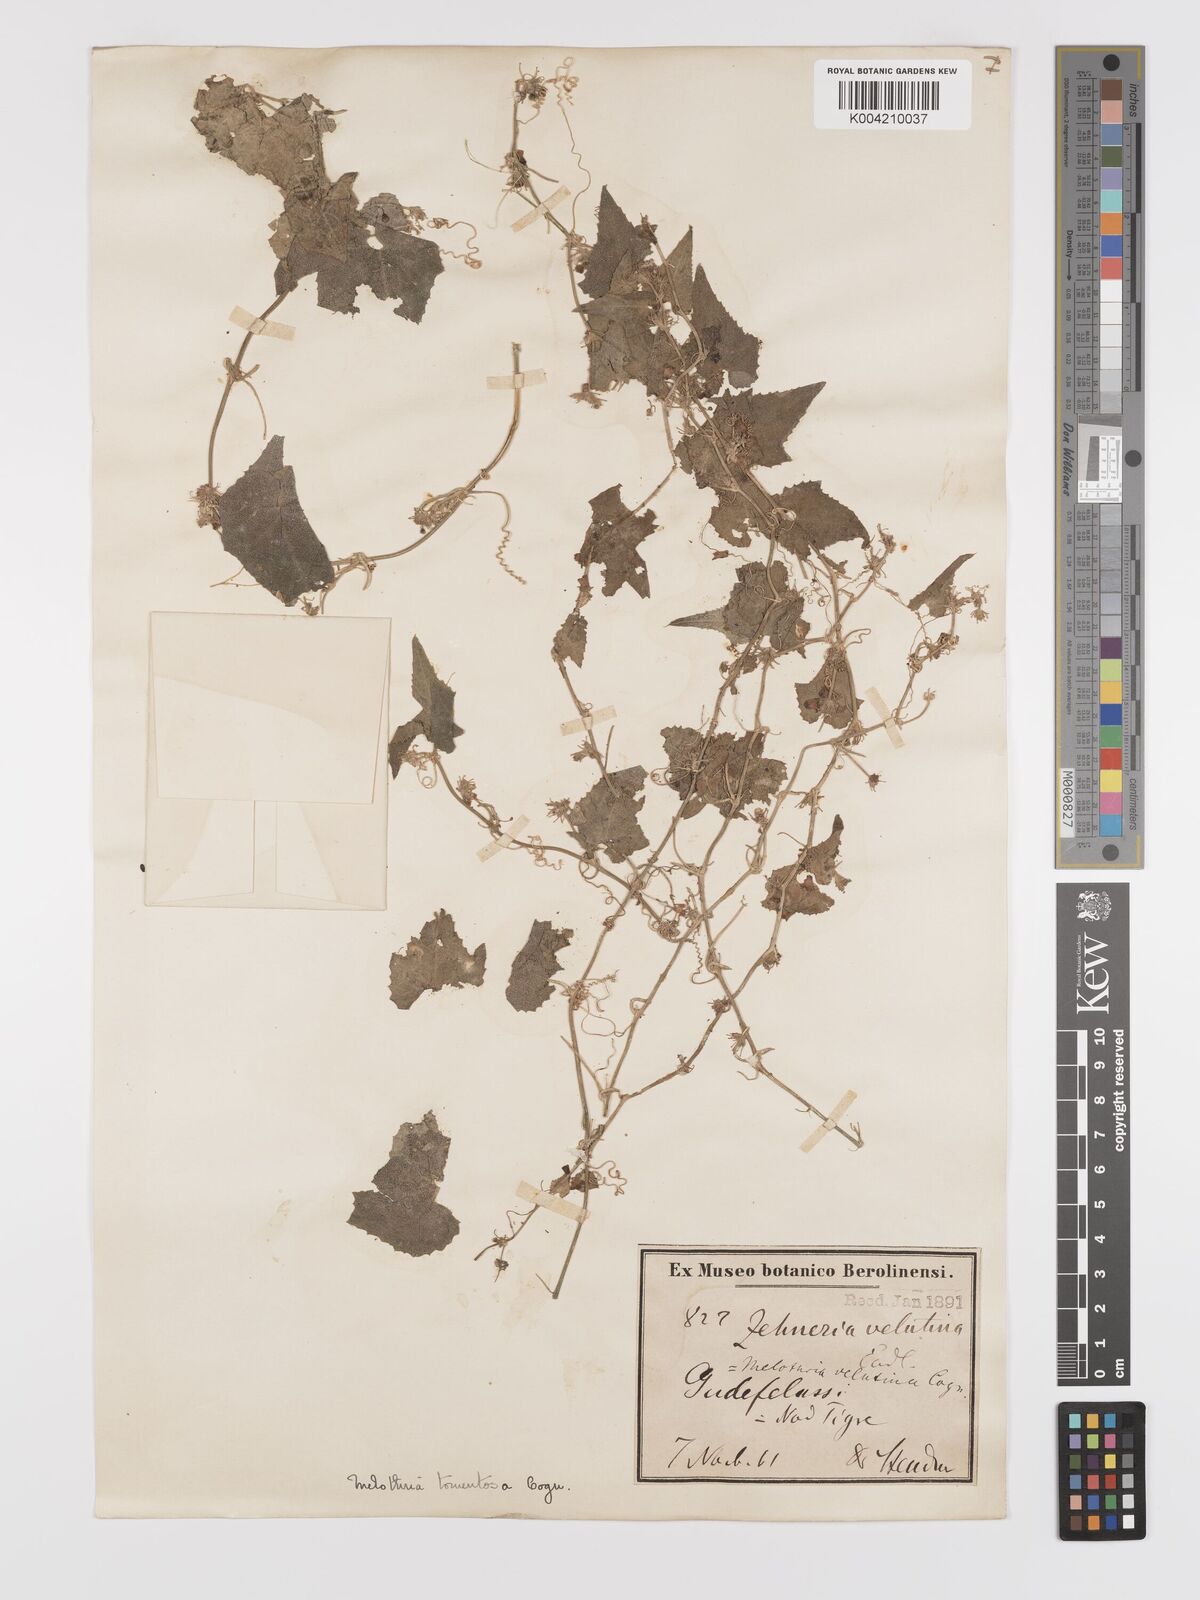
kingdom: Plantae
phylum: Tracheophyta
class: Magnoliopsida
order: Cucurbitales
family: Cucurbitaceae
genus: Zehneria
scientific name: Zehneria scabra
